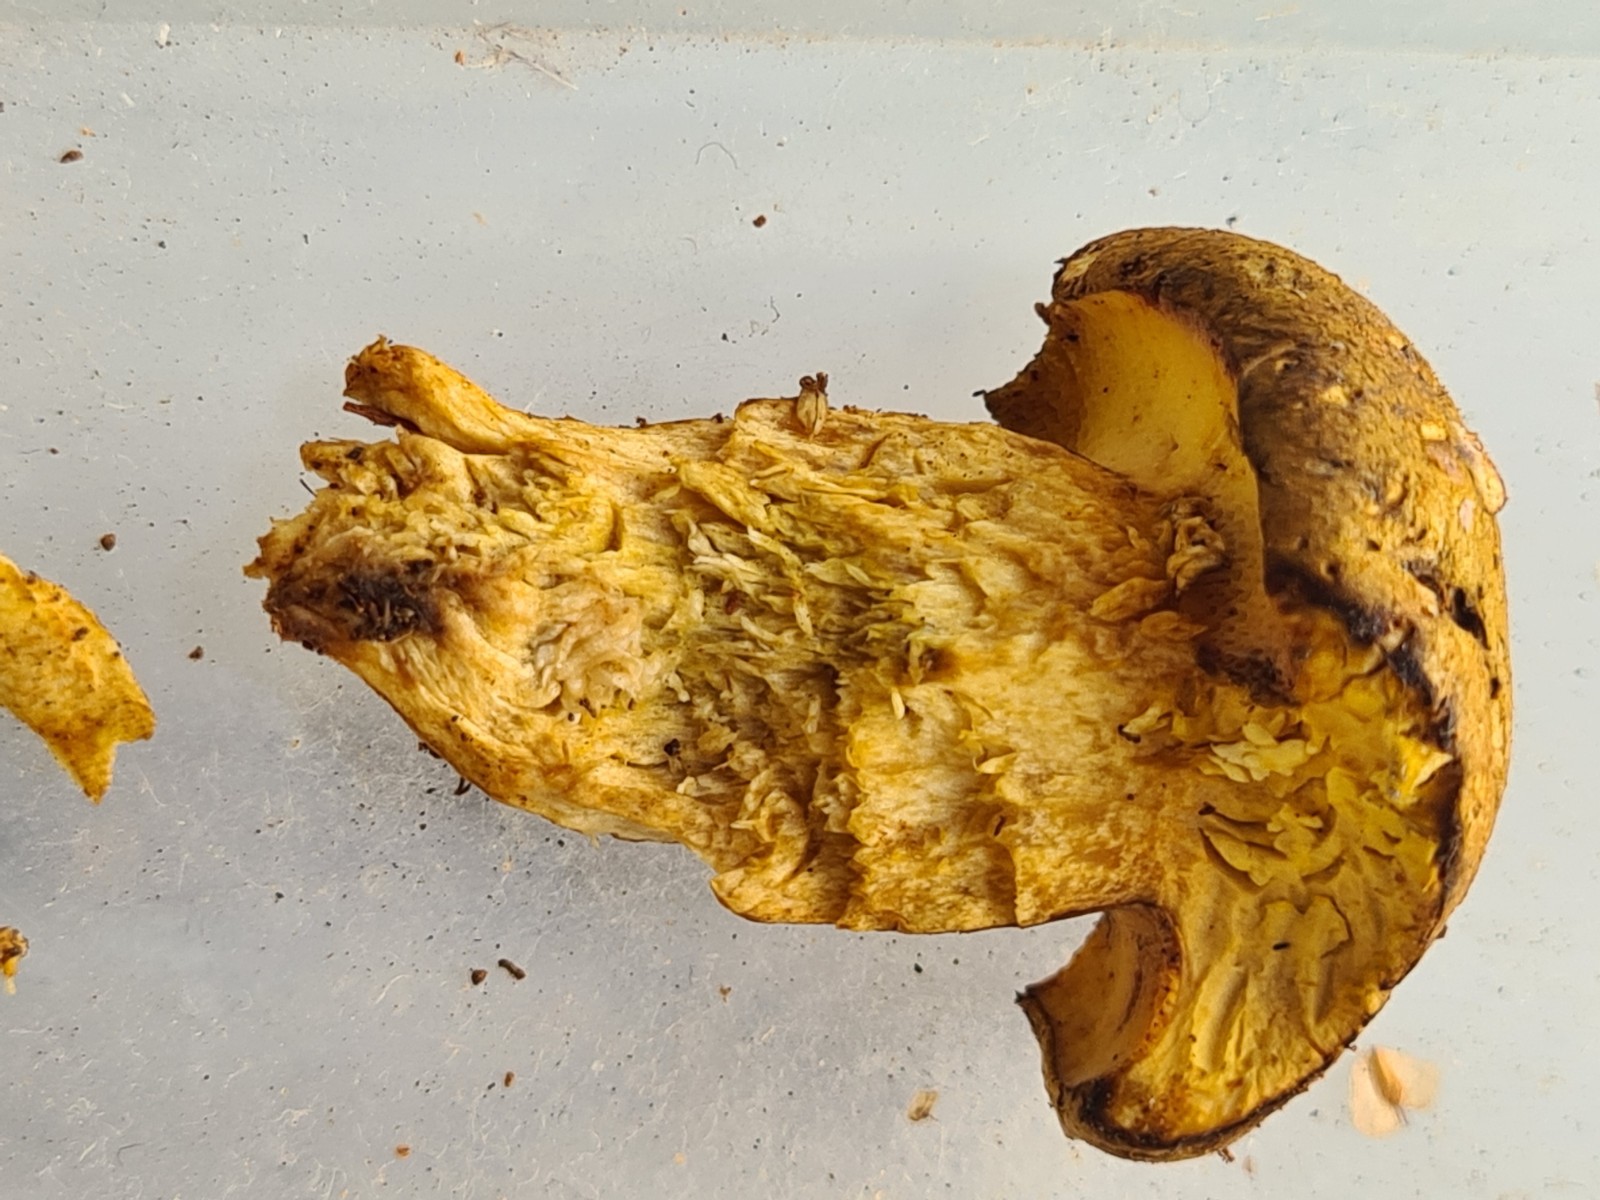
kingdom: Fungi
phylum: Basidiomycota
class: Agaricomycetes
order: Boletales
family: Boletaceae
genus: Pseudoboletus
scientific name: Pseudoboletus parasiticus
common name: snyltende rørhat
